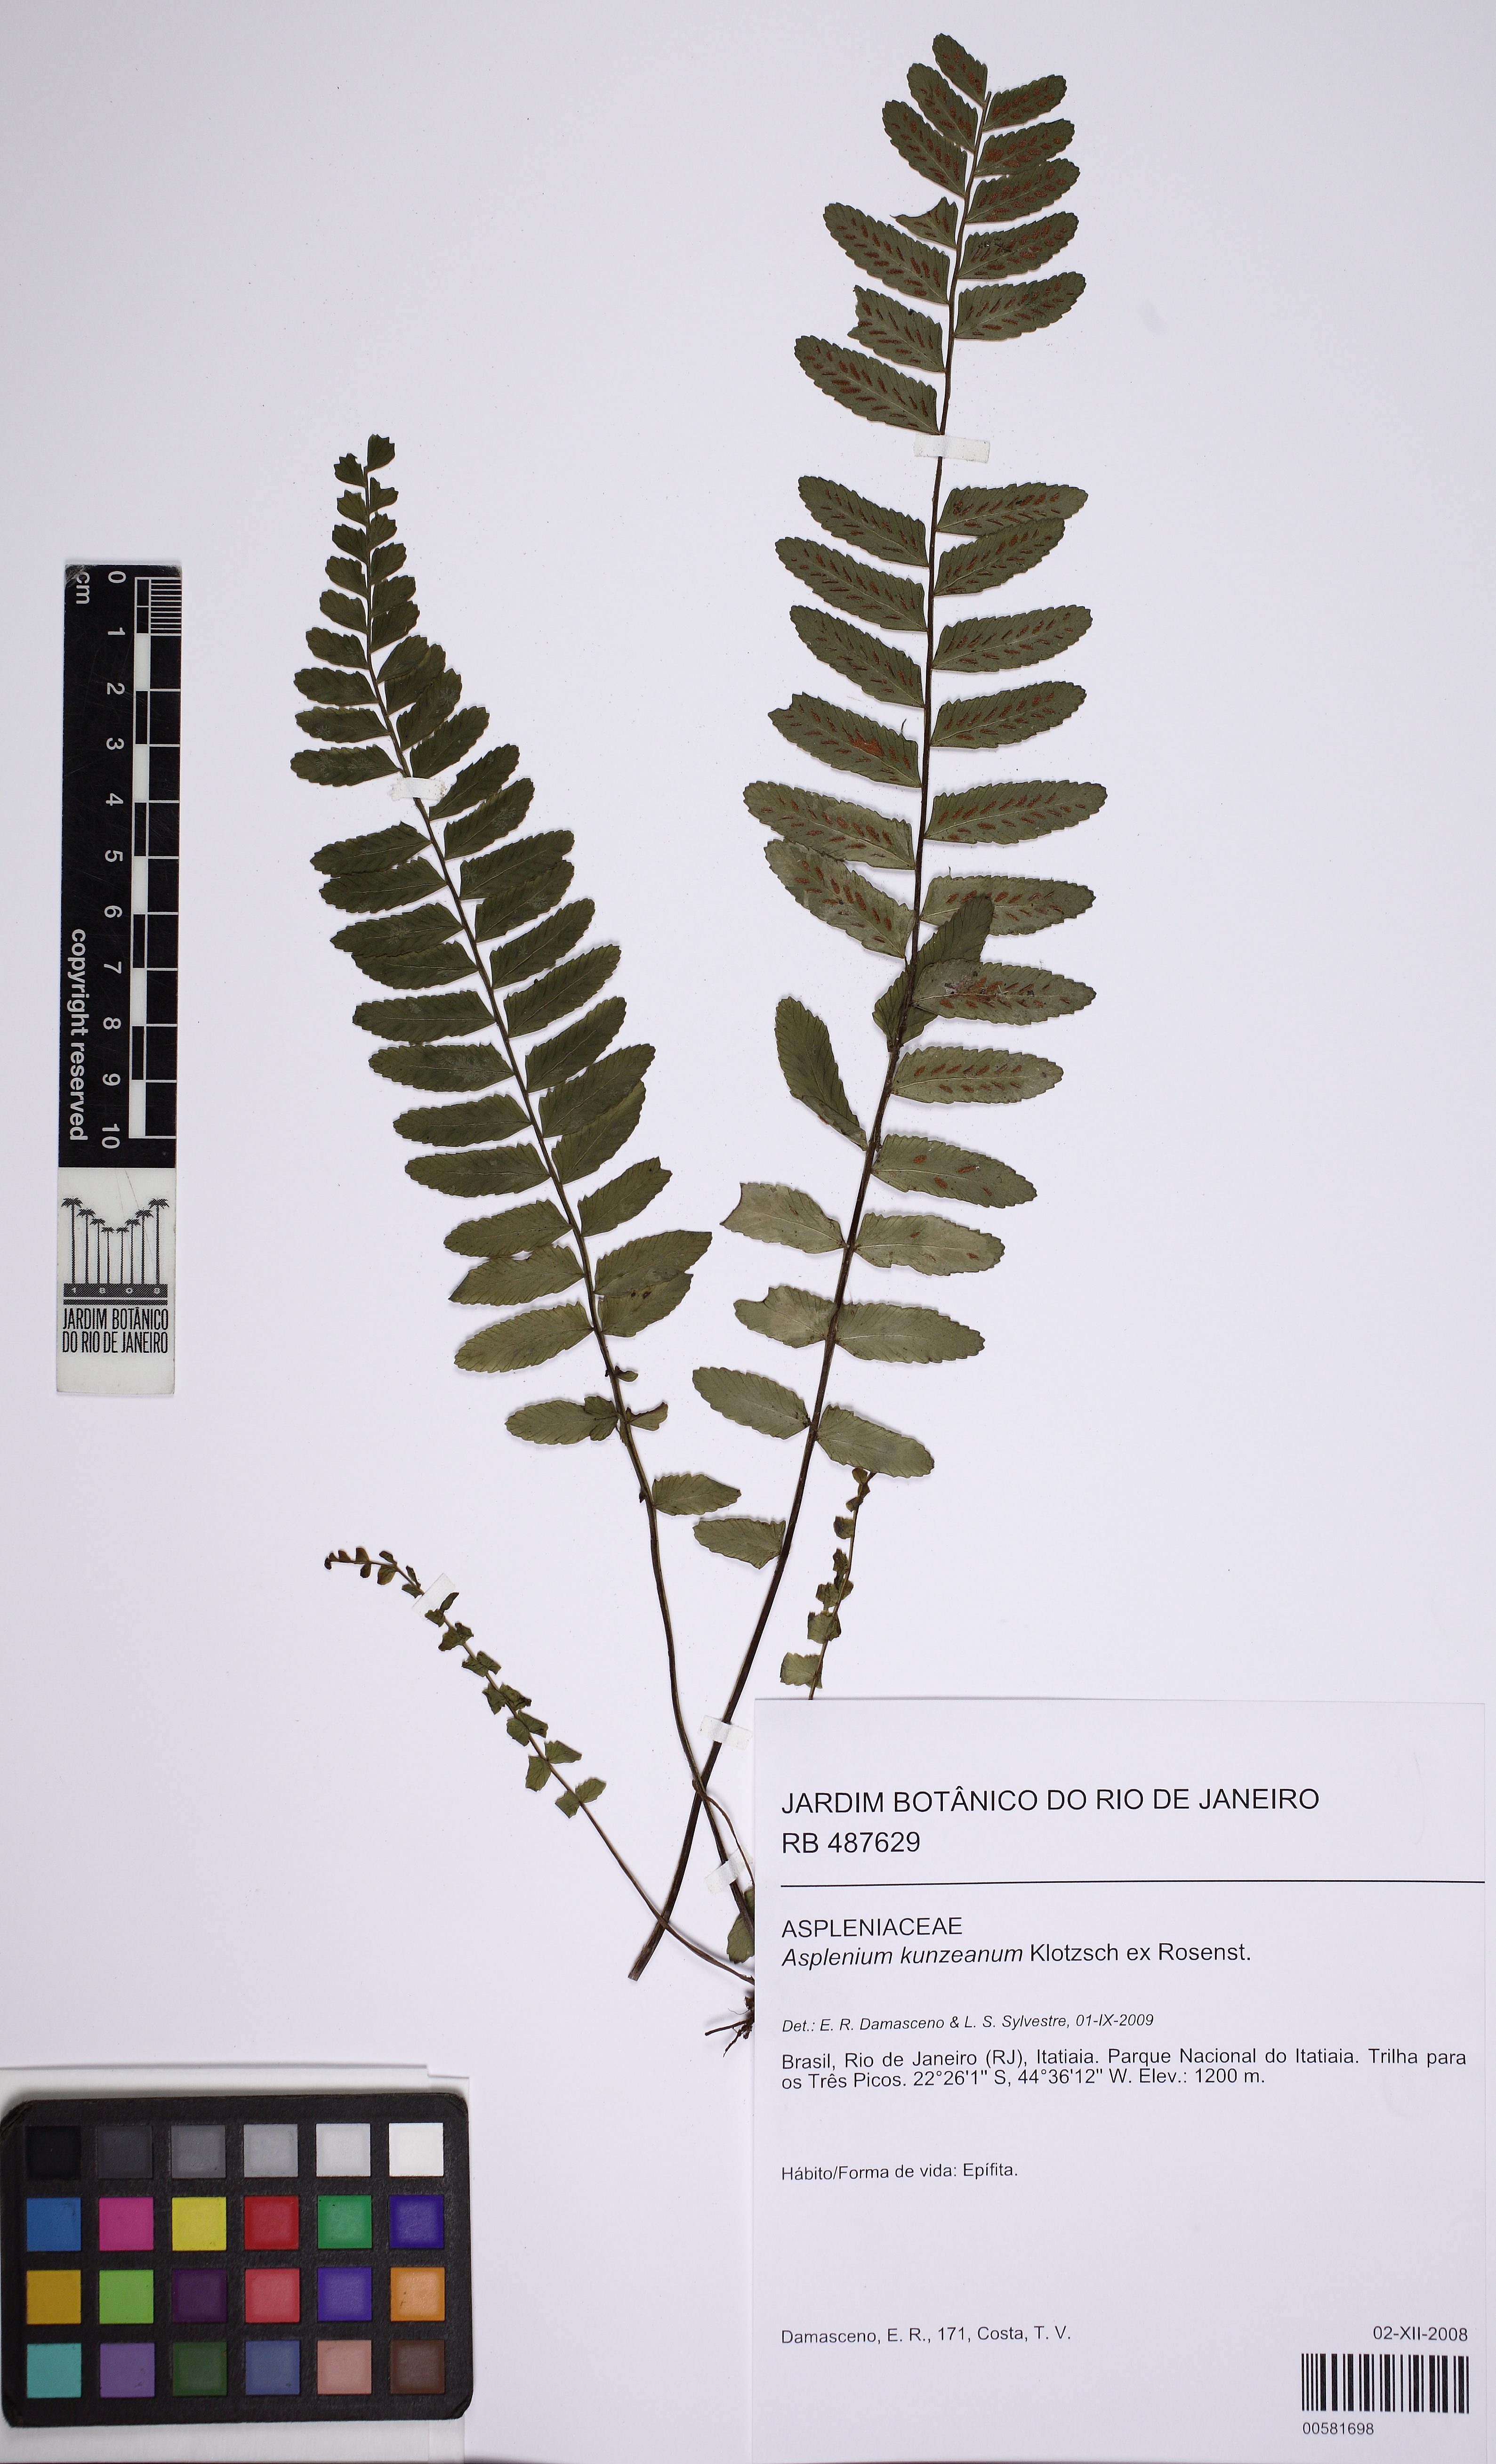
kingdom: Plantae
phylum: Tracheophyta
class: Polypodiopsida
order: Polypodiales
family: Aspleniaceae
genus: Asplenium
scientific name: Asplenium kunzeanum
